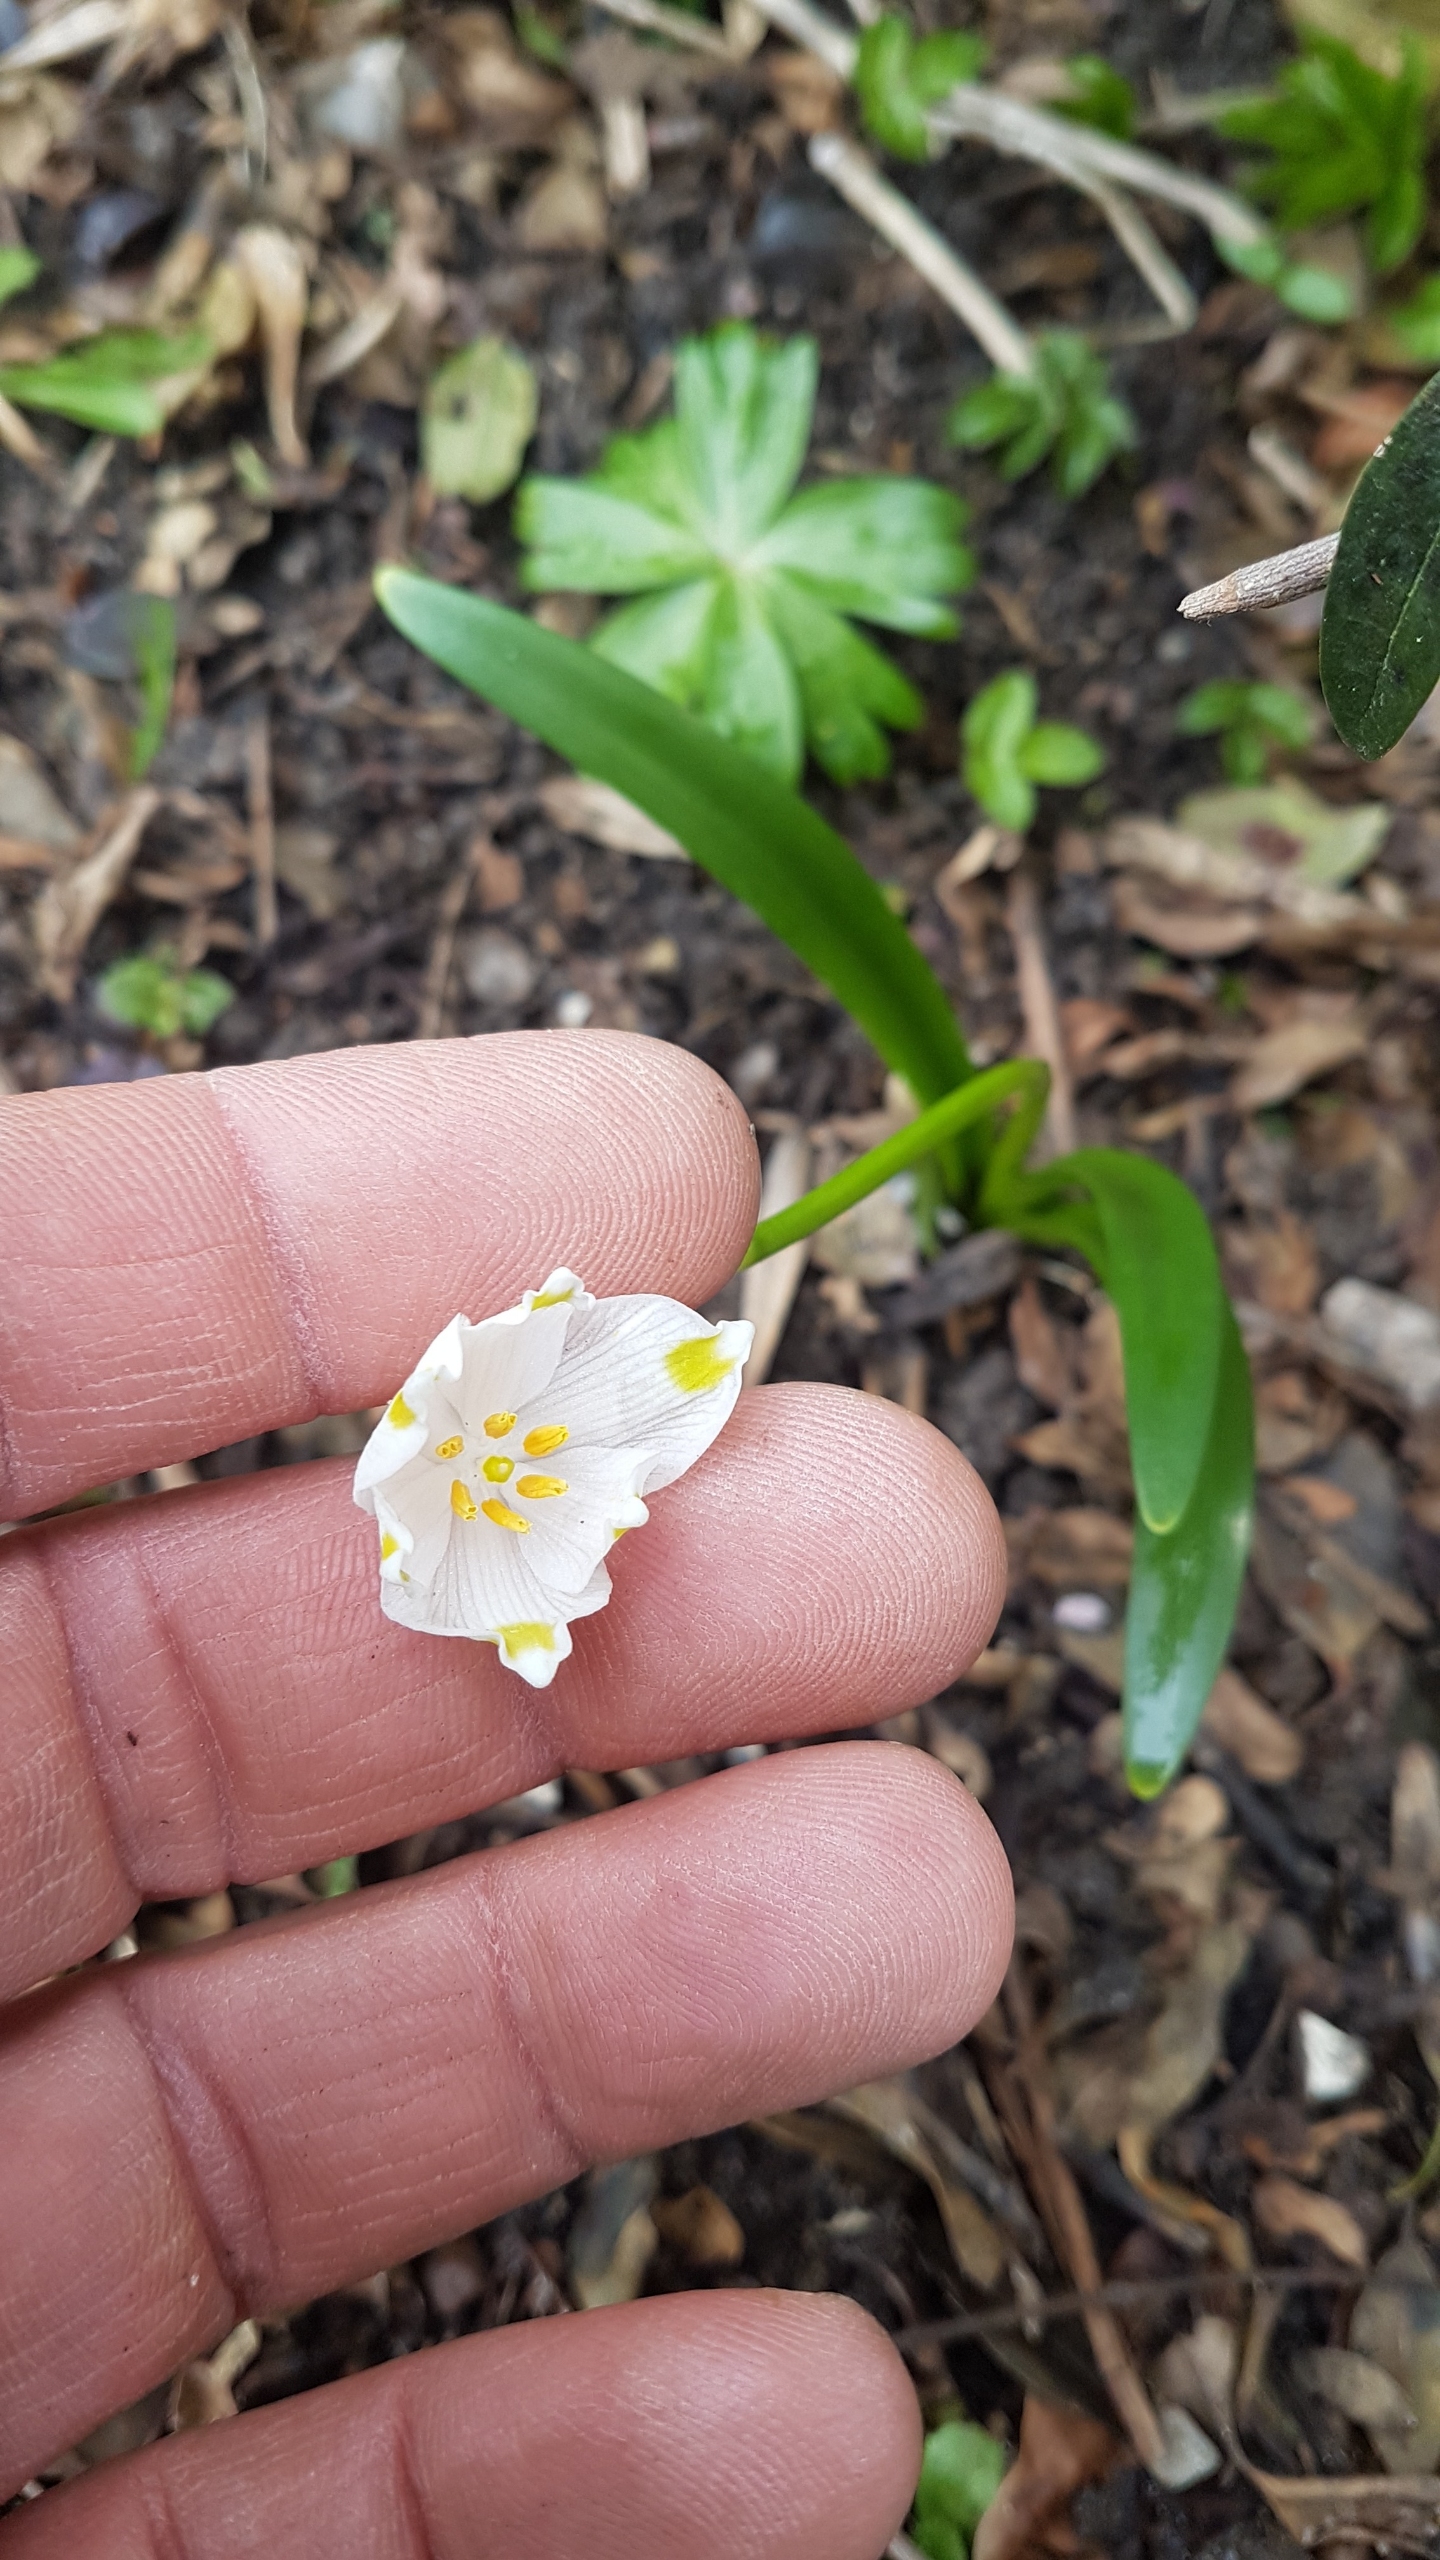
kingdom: Plantae
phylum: Tracheophyta
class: Liliopsida
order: Asparagales
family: Amaryllidaceae
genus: Leucojum
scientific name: Leucojum vernum
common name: Dorthealilje
